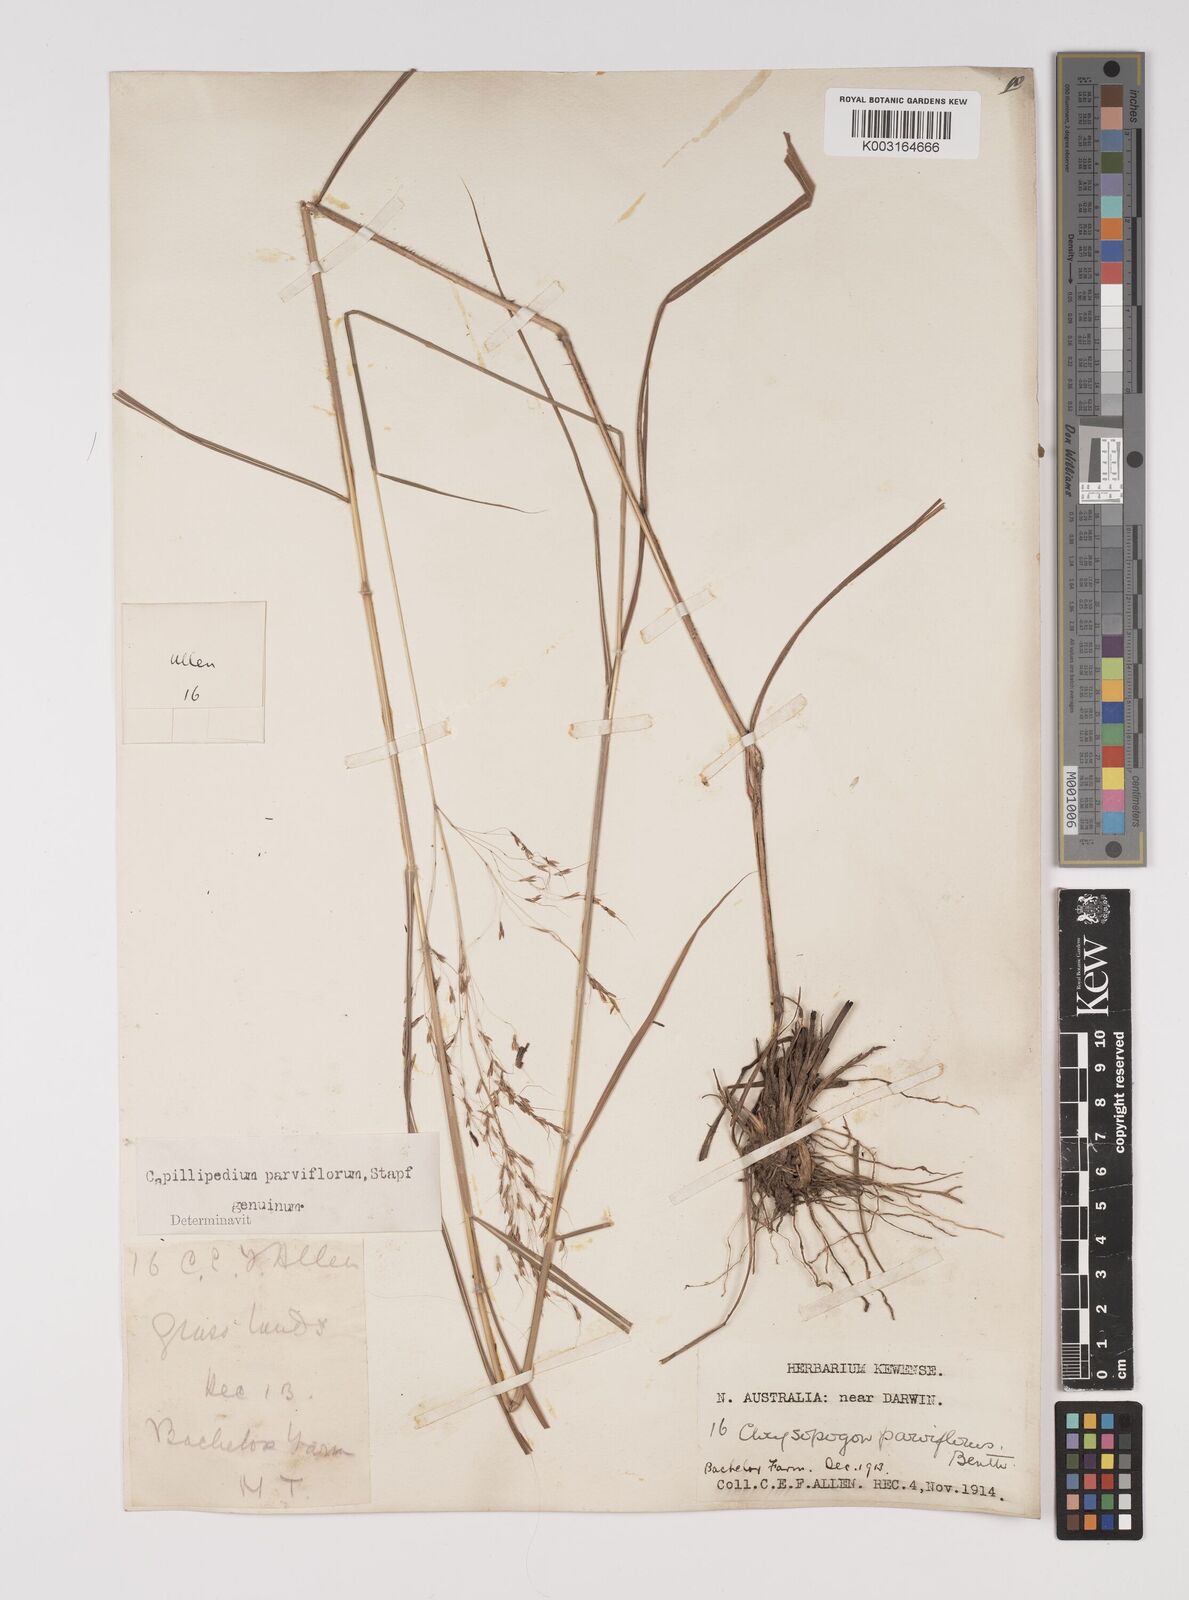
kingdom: Plantae
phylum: Tracheophyta
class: Liliopsida
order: Poales
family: Poaceae
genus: Capillipedium
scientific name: Capillipedium parviflorum
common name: Golden-beard
